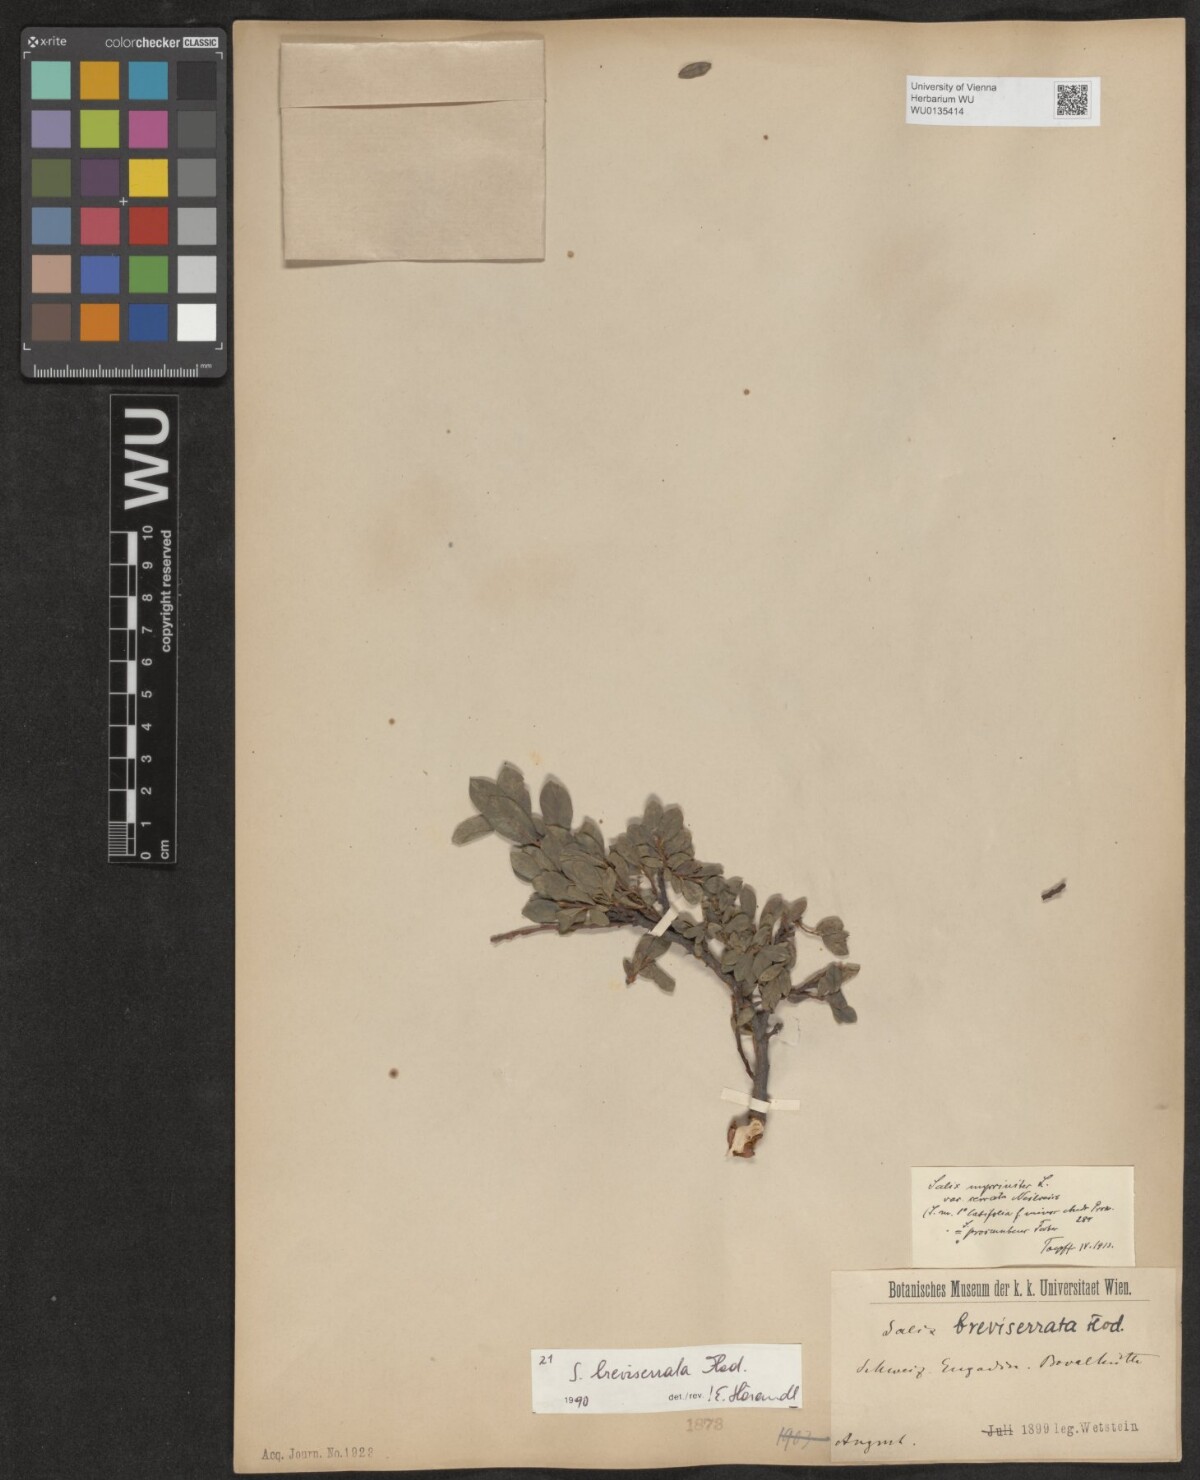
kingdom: Plantae
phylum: Tracheophyta
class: Magnoliopsida
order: Malpighiales
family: Salicaceae
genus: Salix
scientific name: Salix breviserrata
